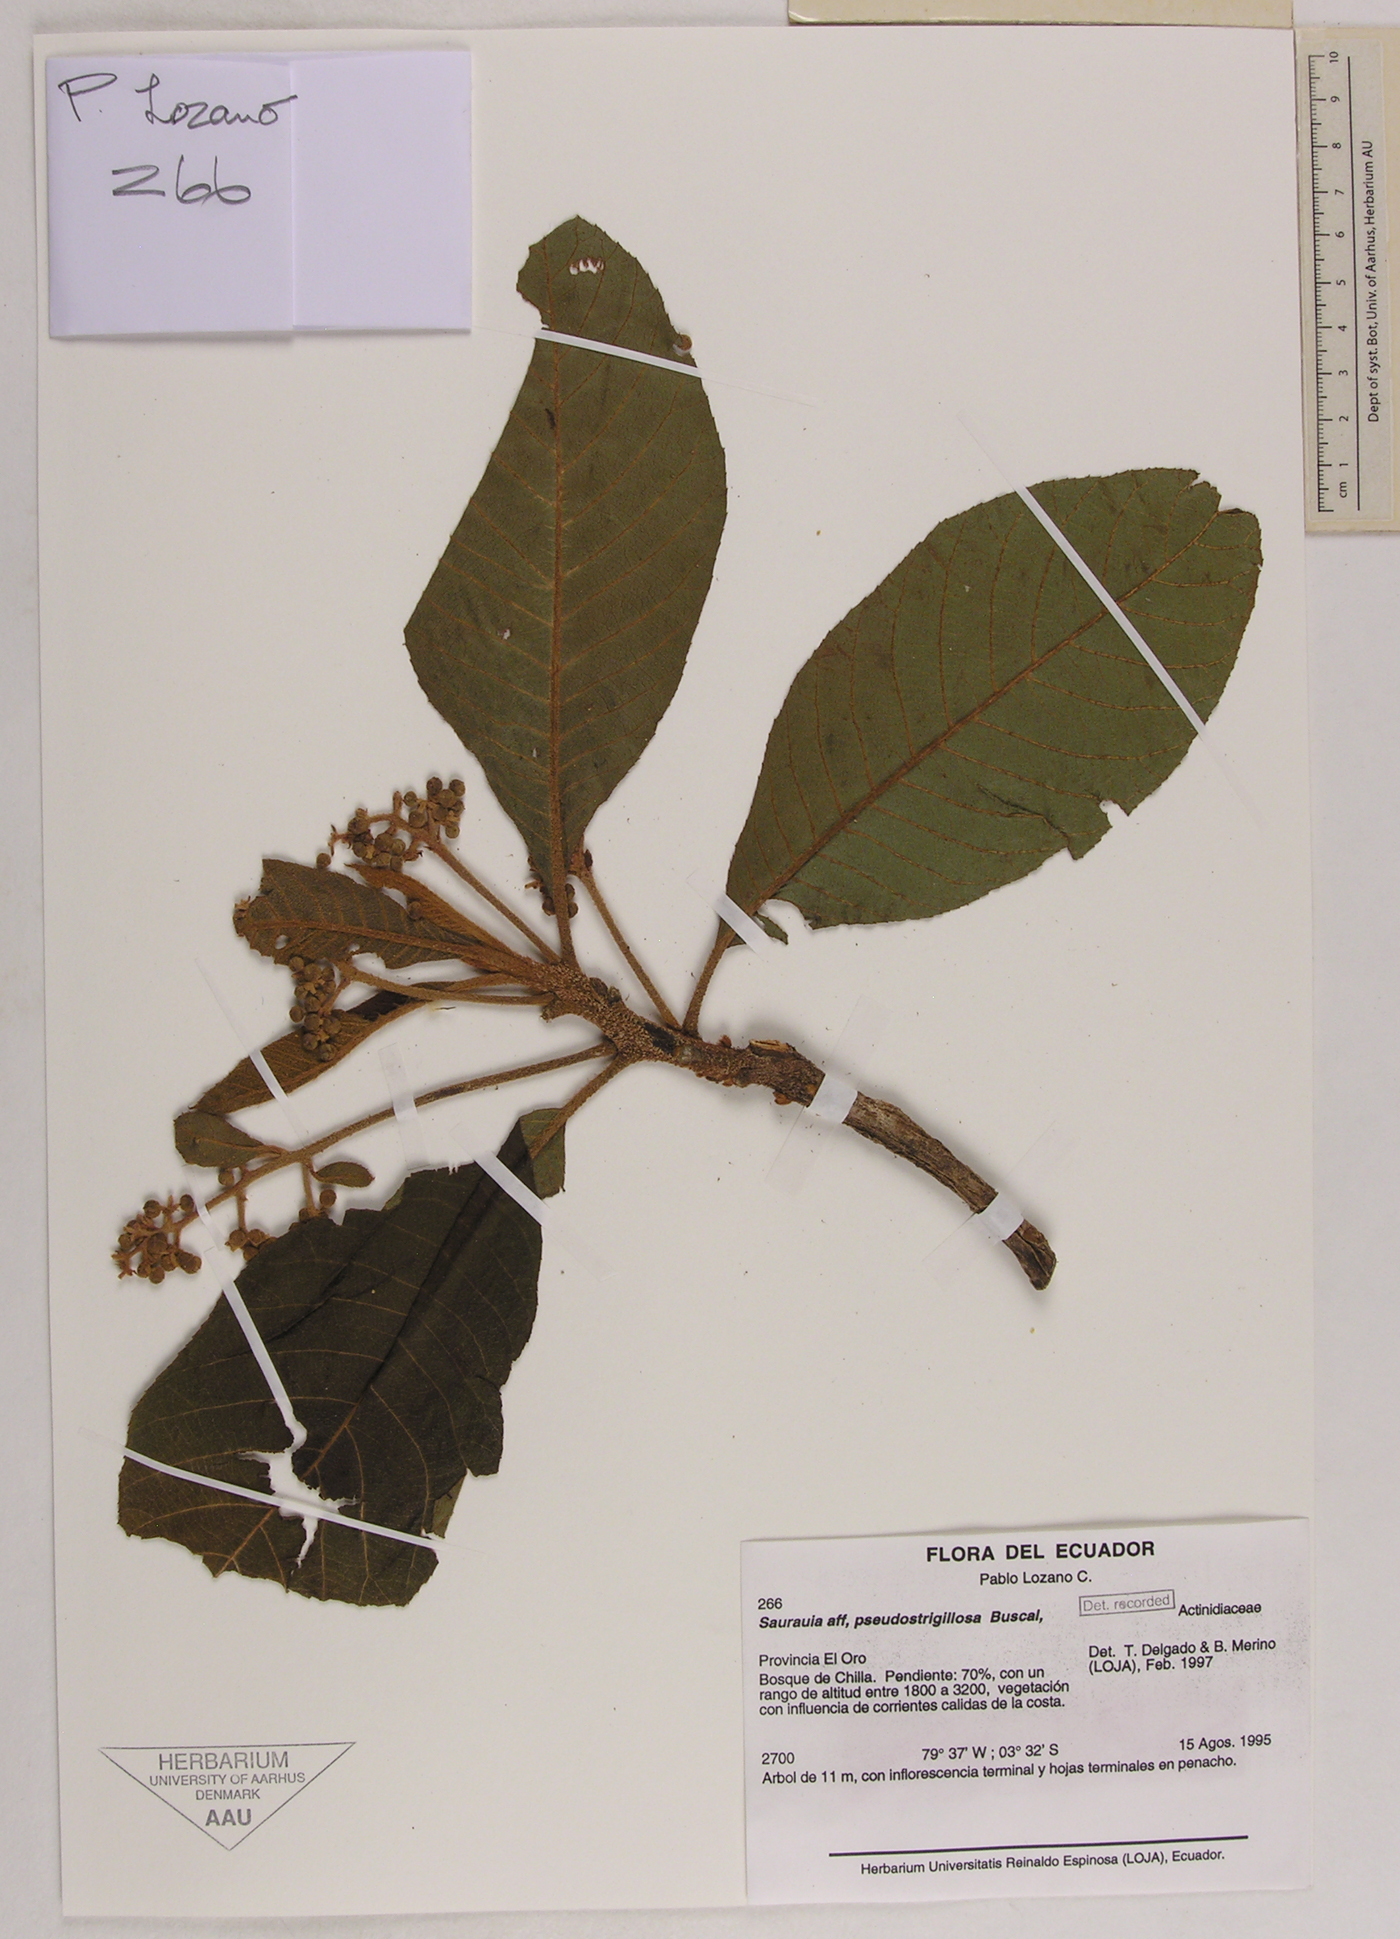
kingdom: Plantae
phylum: Tracheophyta
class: Magnoliopsida
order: Ericales
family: Actinidiaceae
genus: Saurauia
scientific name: Saurauia pseudostrigillosa
